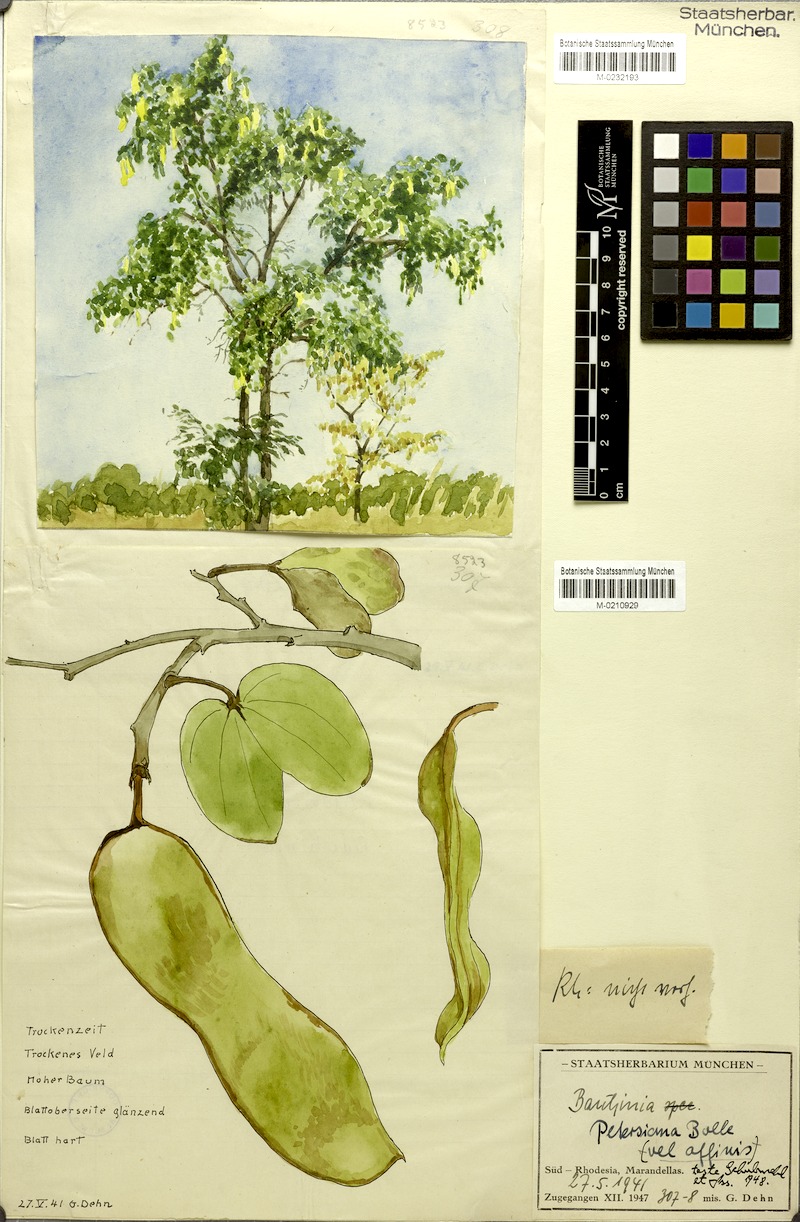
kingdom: Plantae
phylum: Tracheophyta
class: Magnoliopsida
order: Fabales
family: Fabaceae
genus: Bauhinia
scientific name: Bauhinia petersiana
